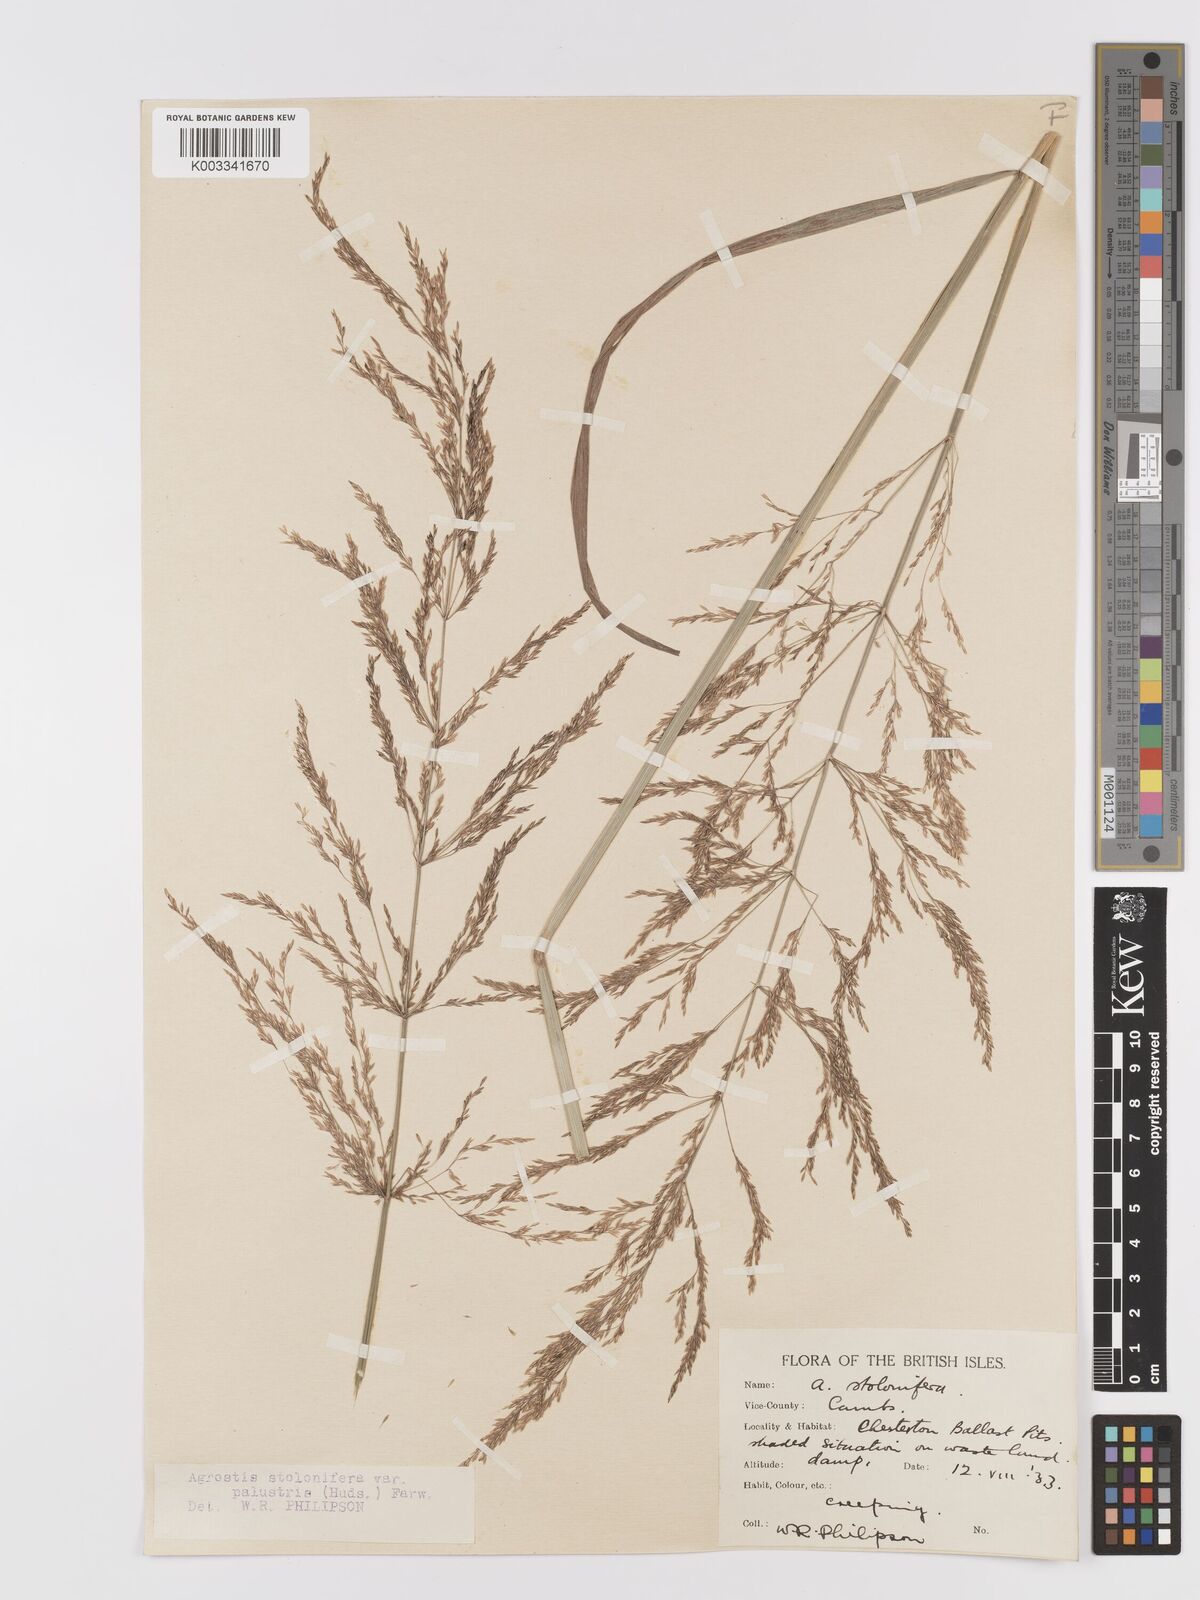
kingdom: Plantae
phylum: Tracheophyta
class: Liliopsida
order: Poales
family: Poaceae
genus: Agrostis
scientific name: Agrostis stolonifera
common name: Creeping bentgrass
